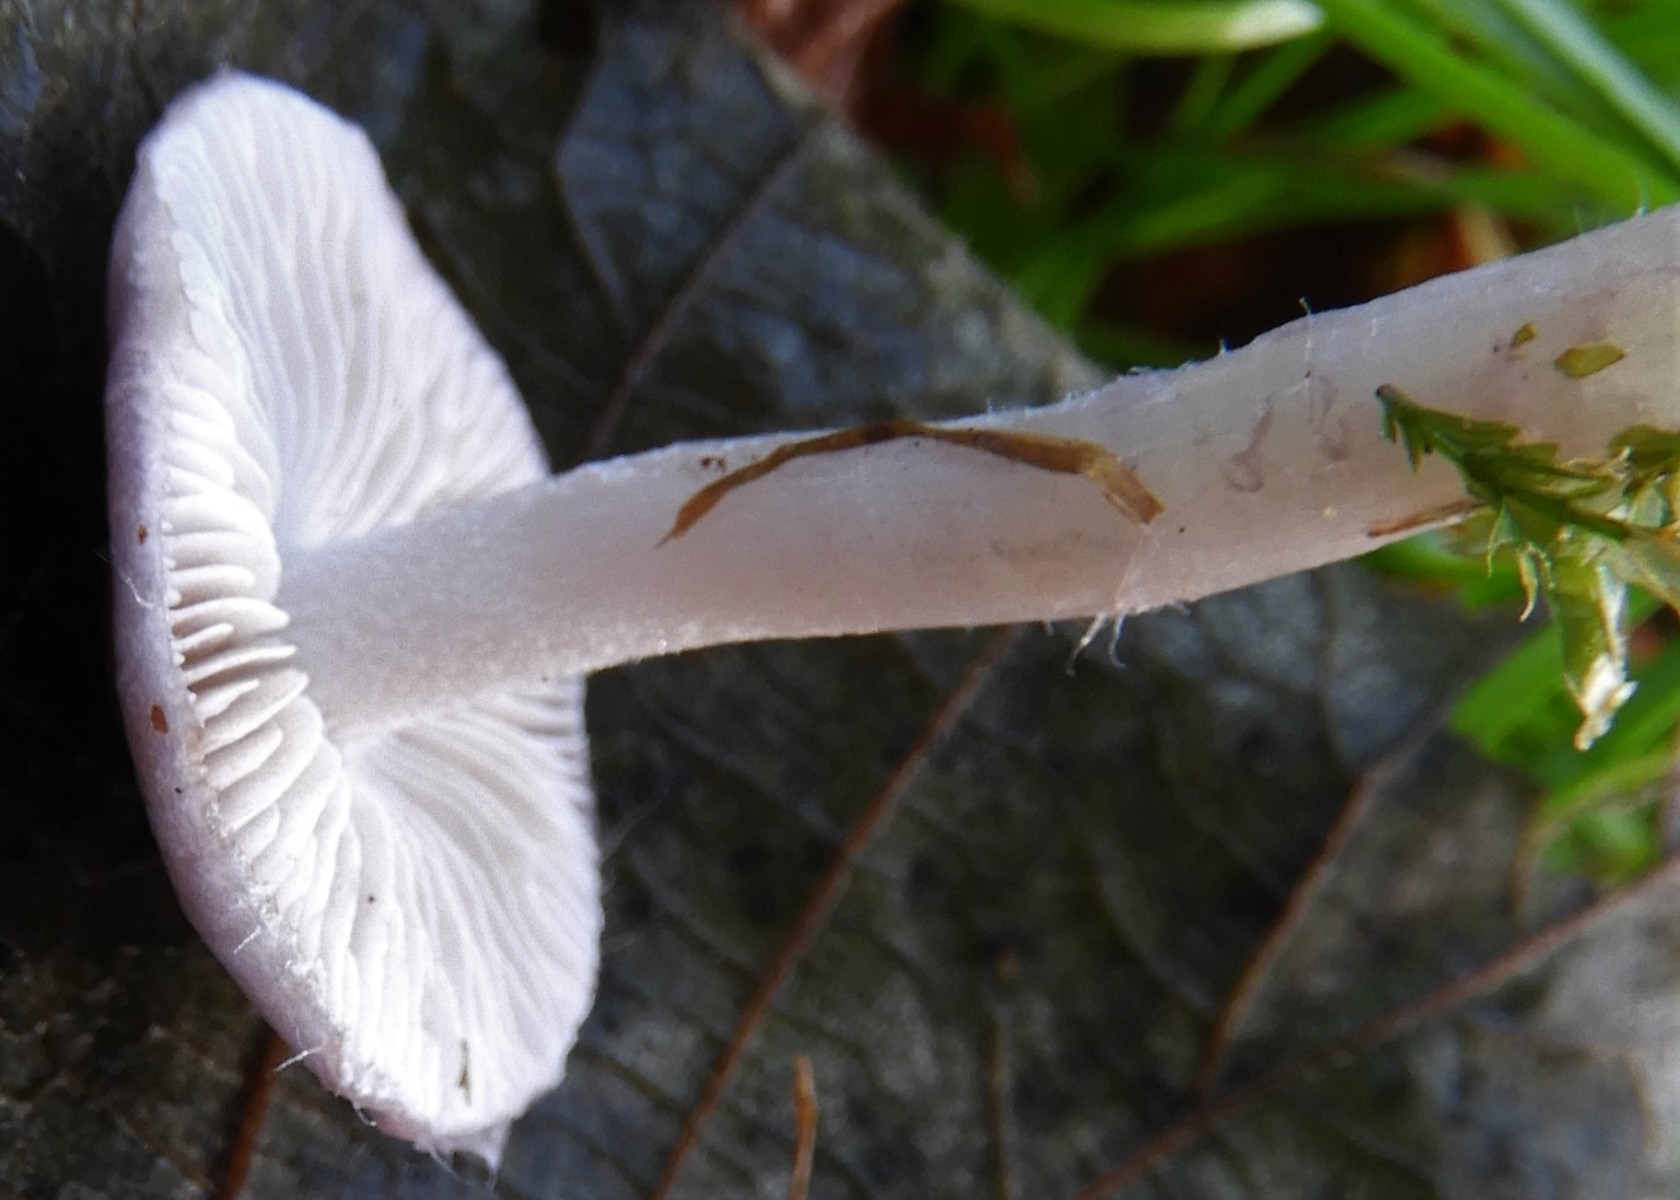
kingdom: Fungi
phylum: Basidiomycota
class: Agaricomycetes
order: Agaricales
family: Inocybaceae
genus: Inocybe
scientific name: Inocybe geophylla
